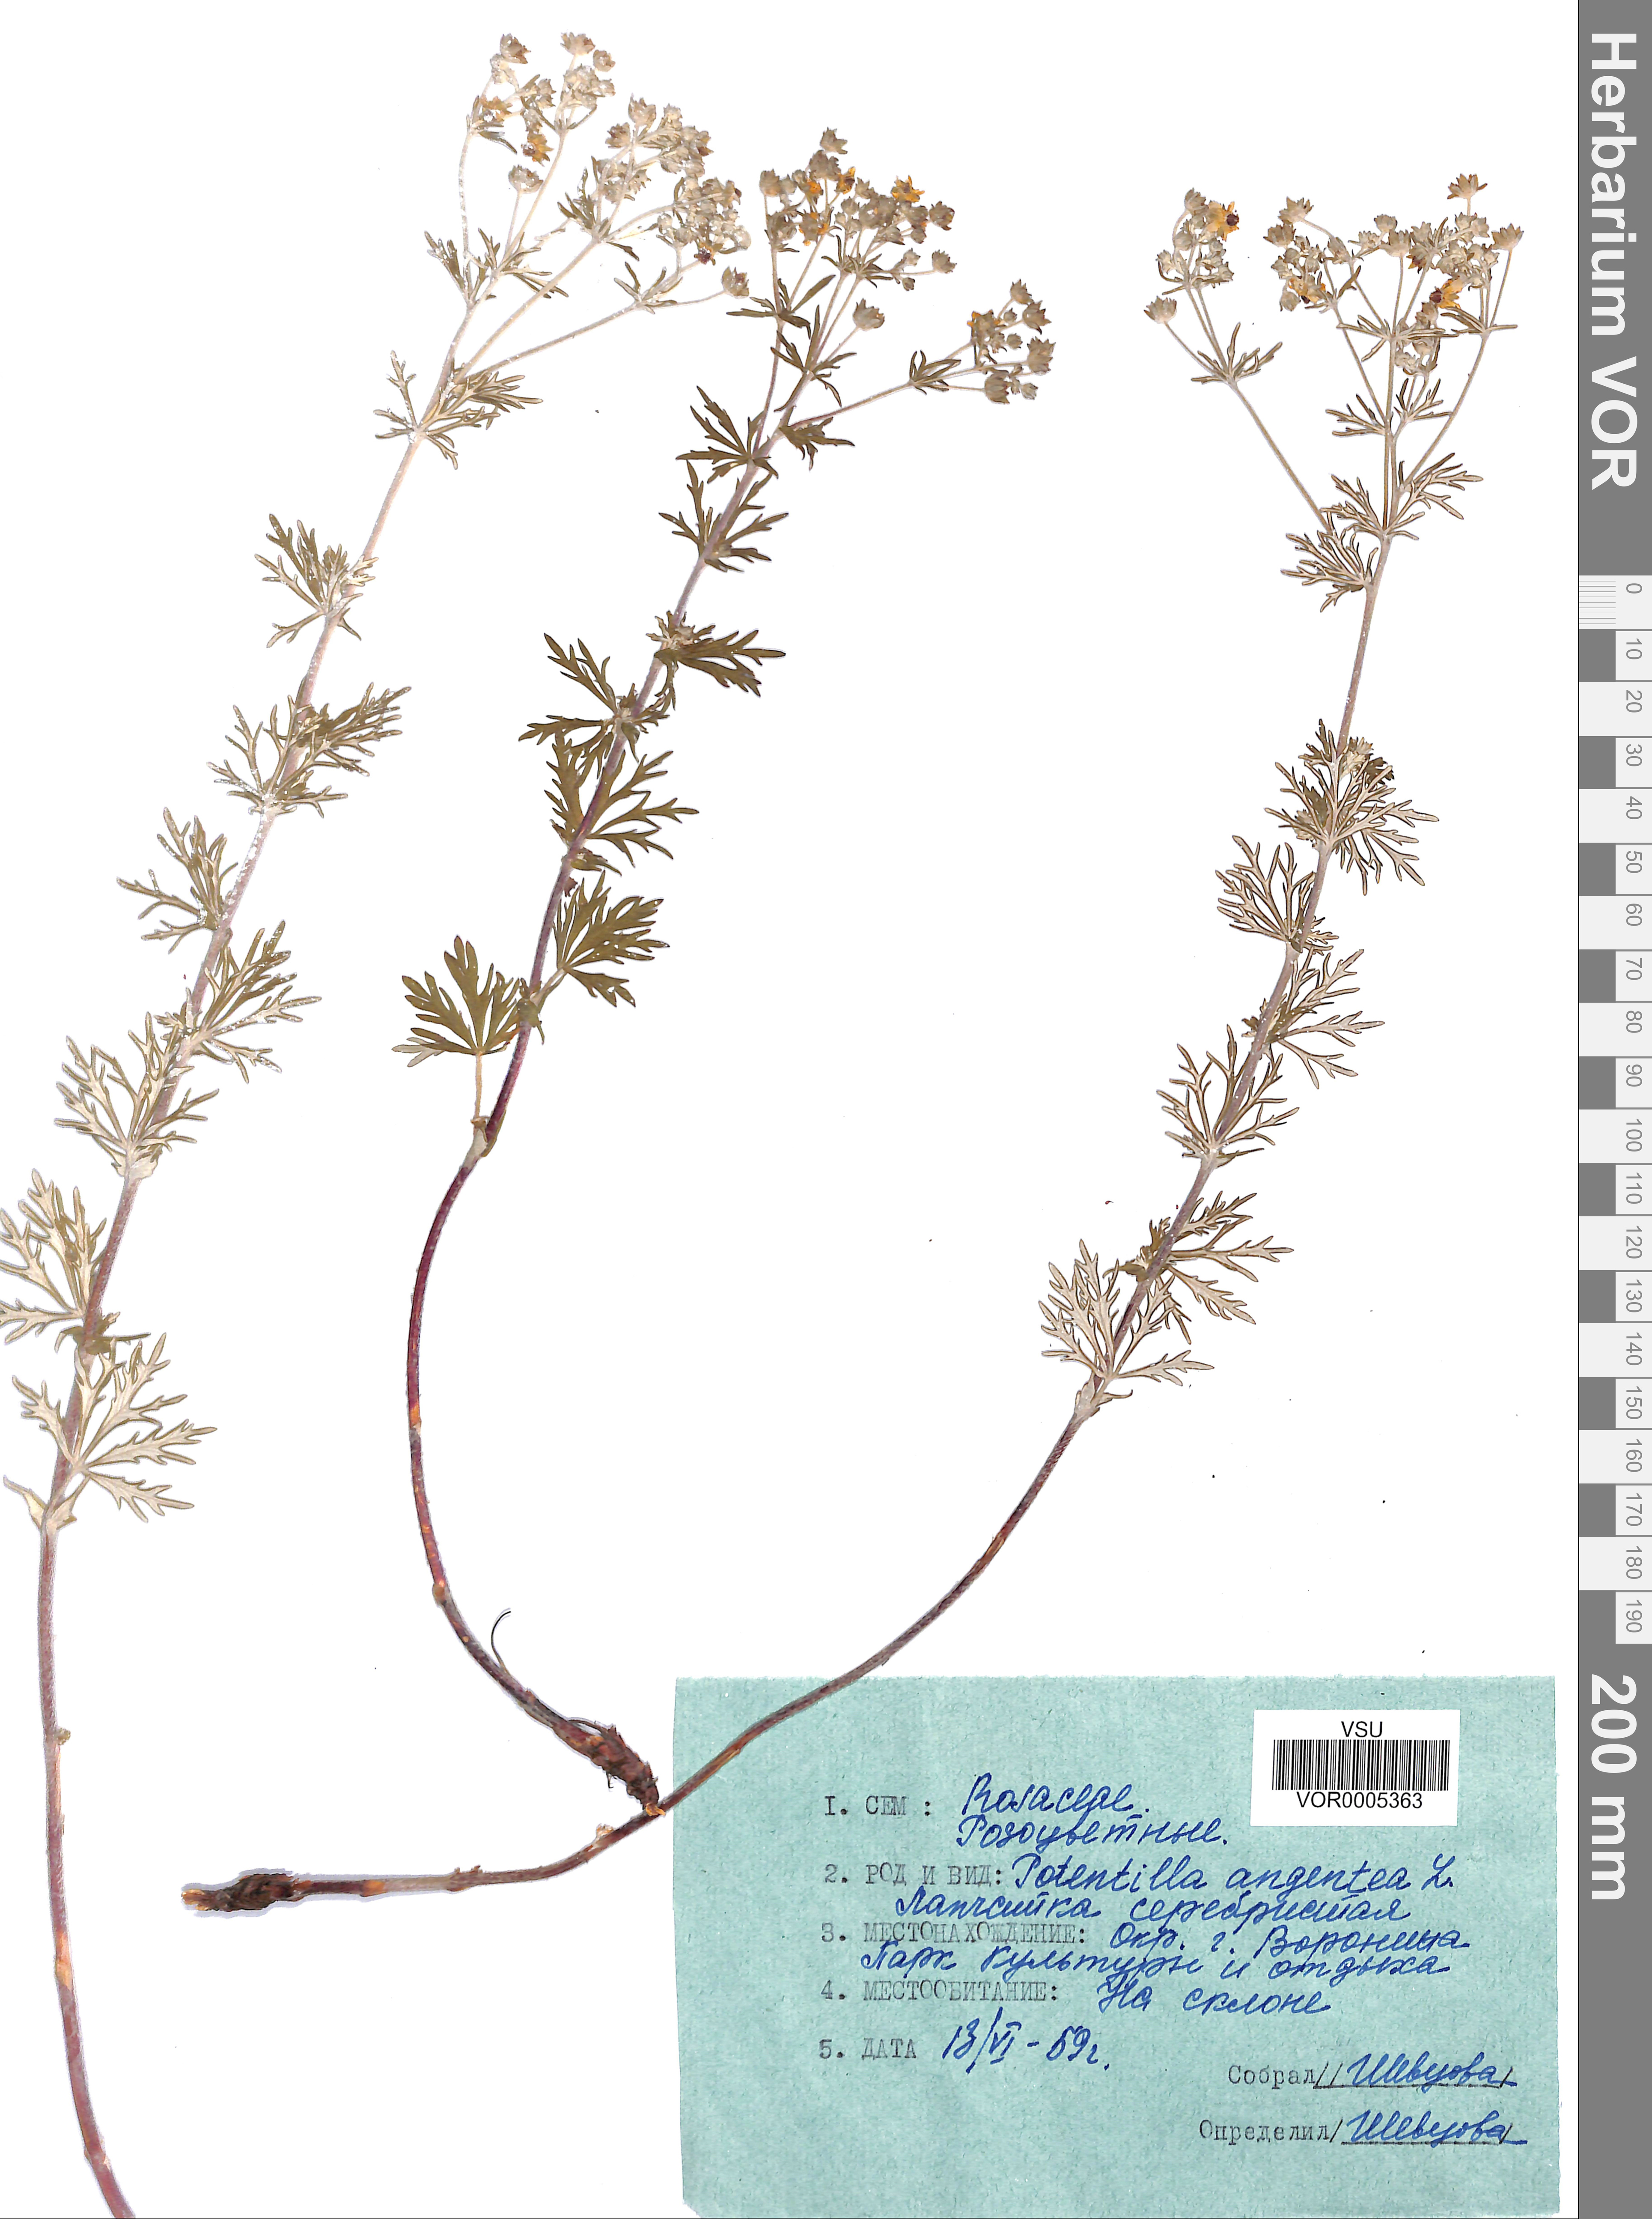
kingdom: Plantae
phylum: Tracheophyta
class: Magnoliopsida
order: Rosales
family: Rosaceae
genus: Potentilla
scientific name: Potentilla argentea
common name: Hoary cinquefoil
